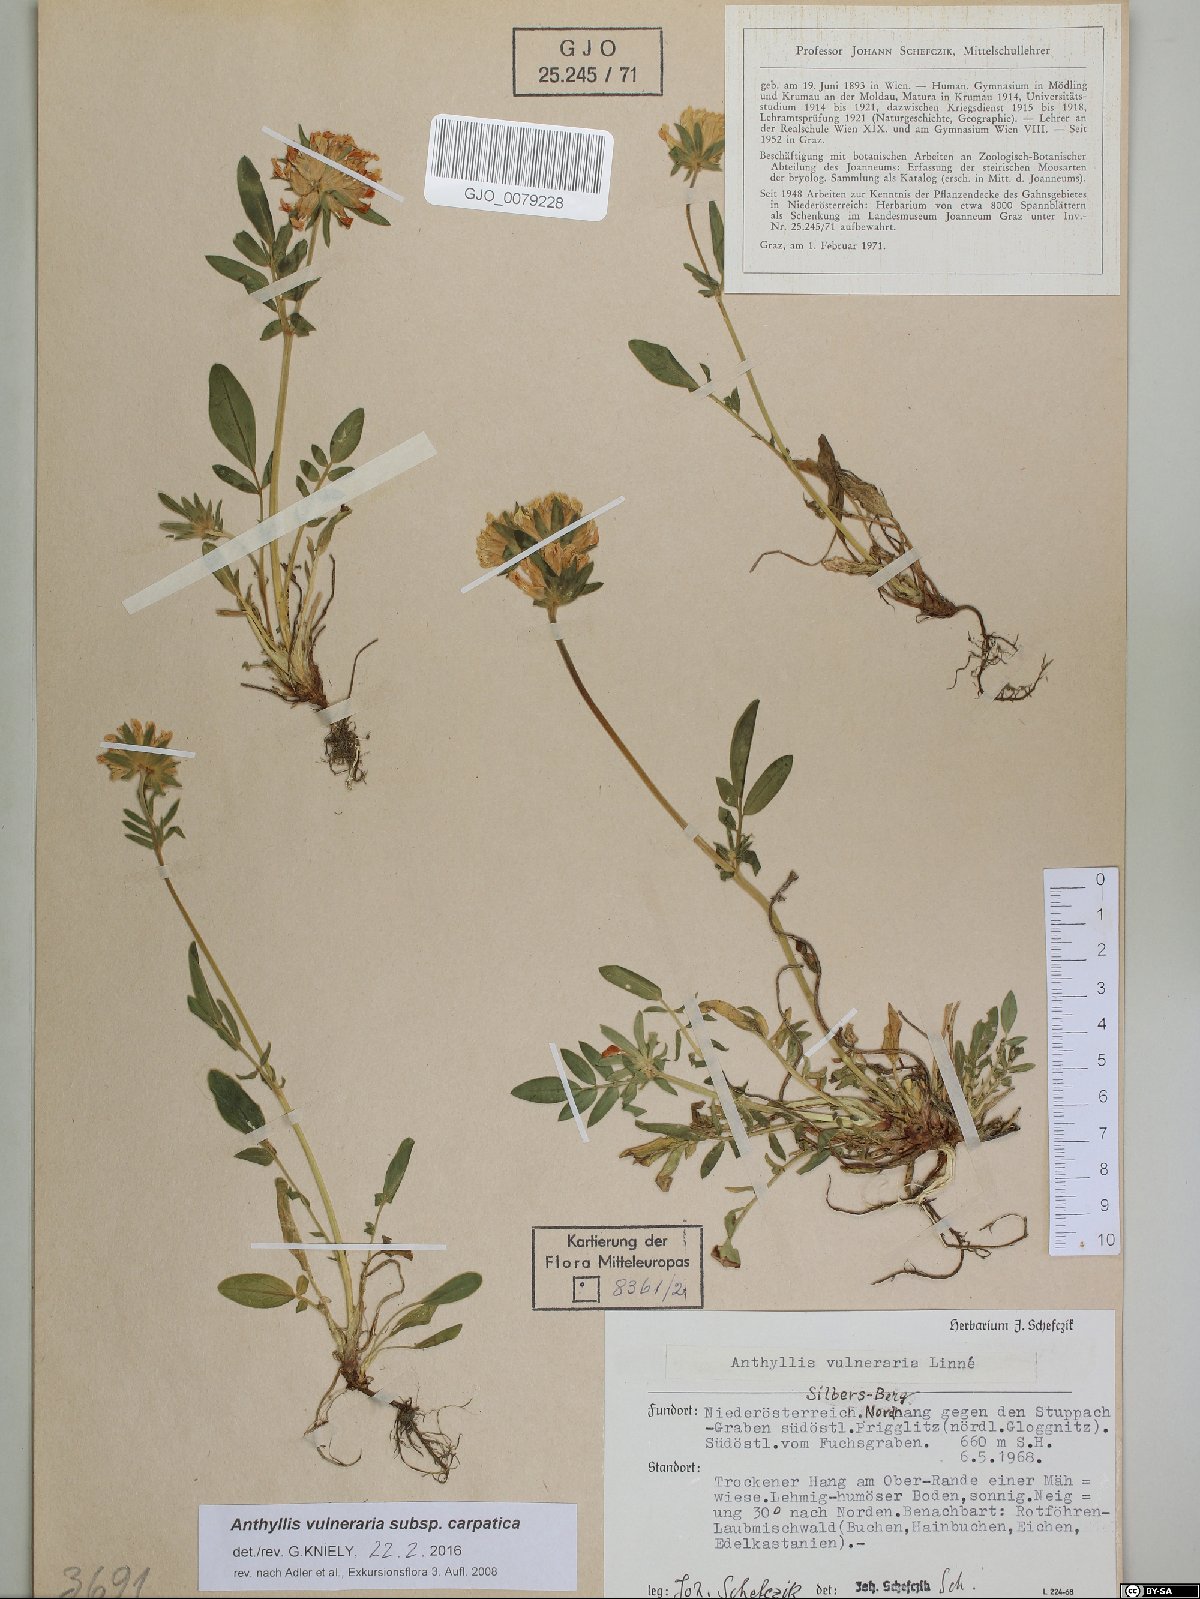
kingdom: Plantae
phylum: Tracheophyta
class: Magnoliopsida
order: Fabales
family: Fabaceae
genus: Anthyllis
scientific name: Anthyllis vulneraria
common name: Kidney vetch
